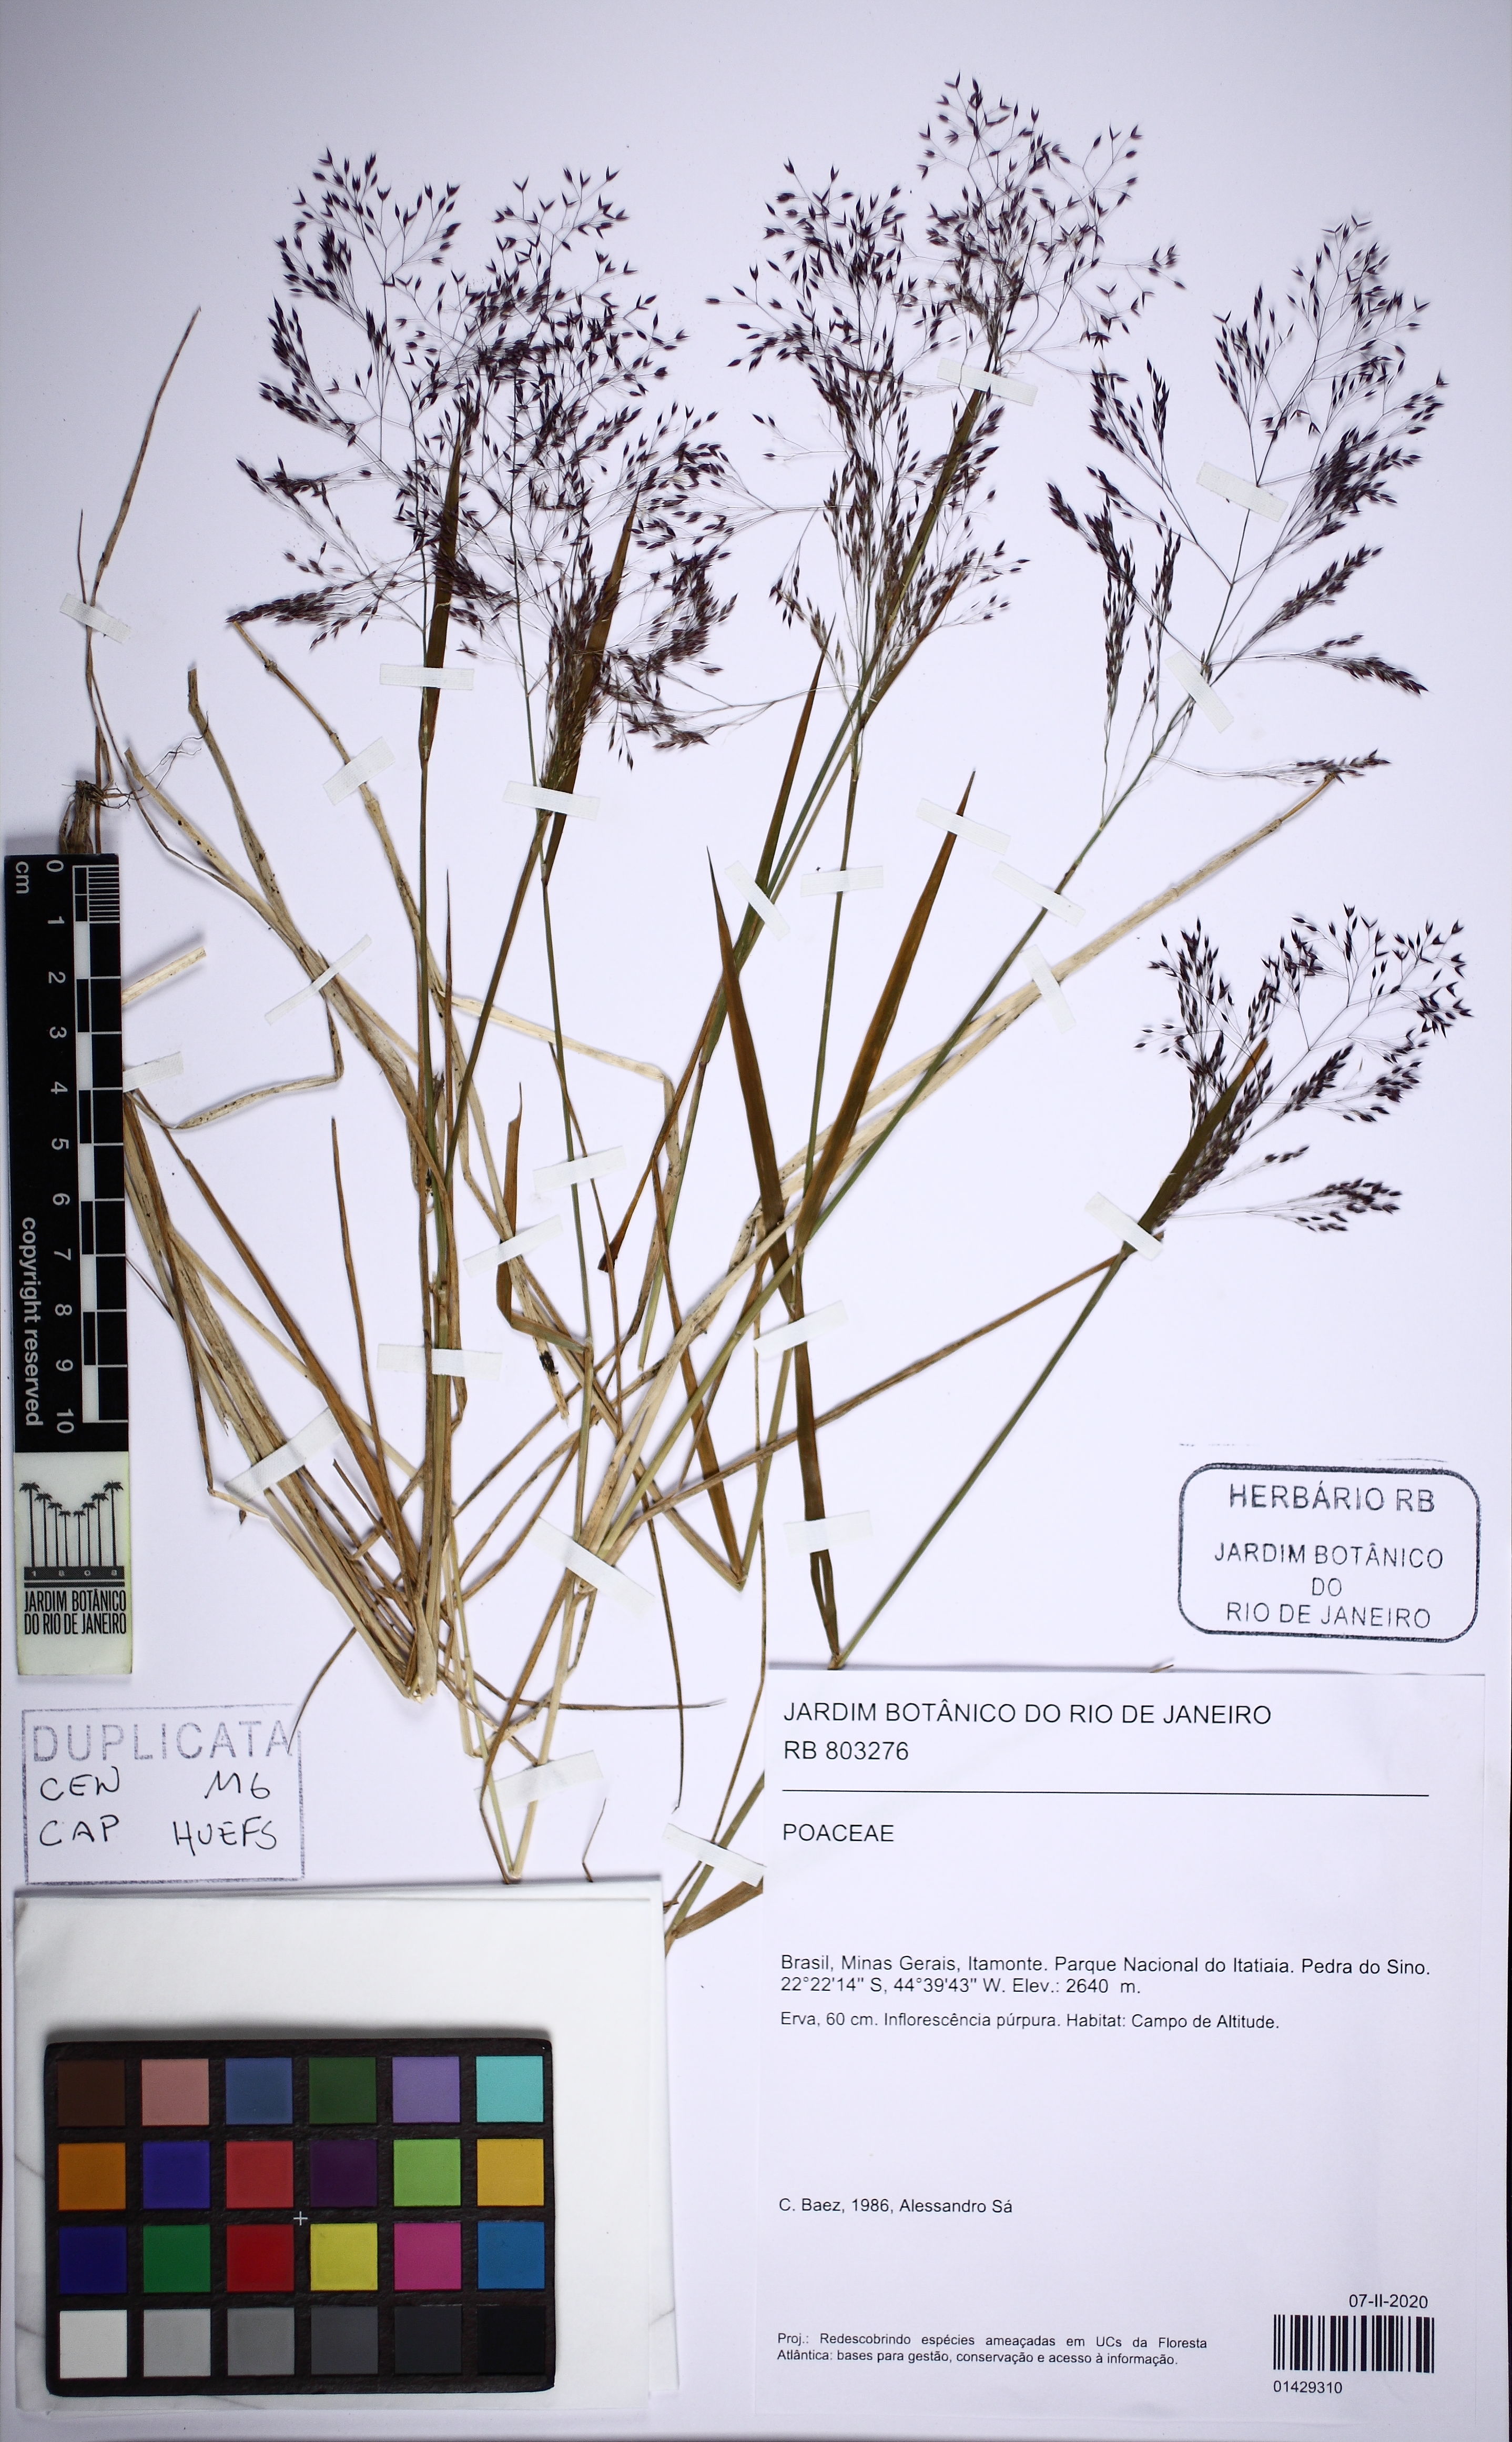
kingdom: Plantae
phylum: Tracheophyta
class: Liliopsida
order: Poales
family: Poaceae
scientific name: Poaceae
